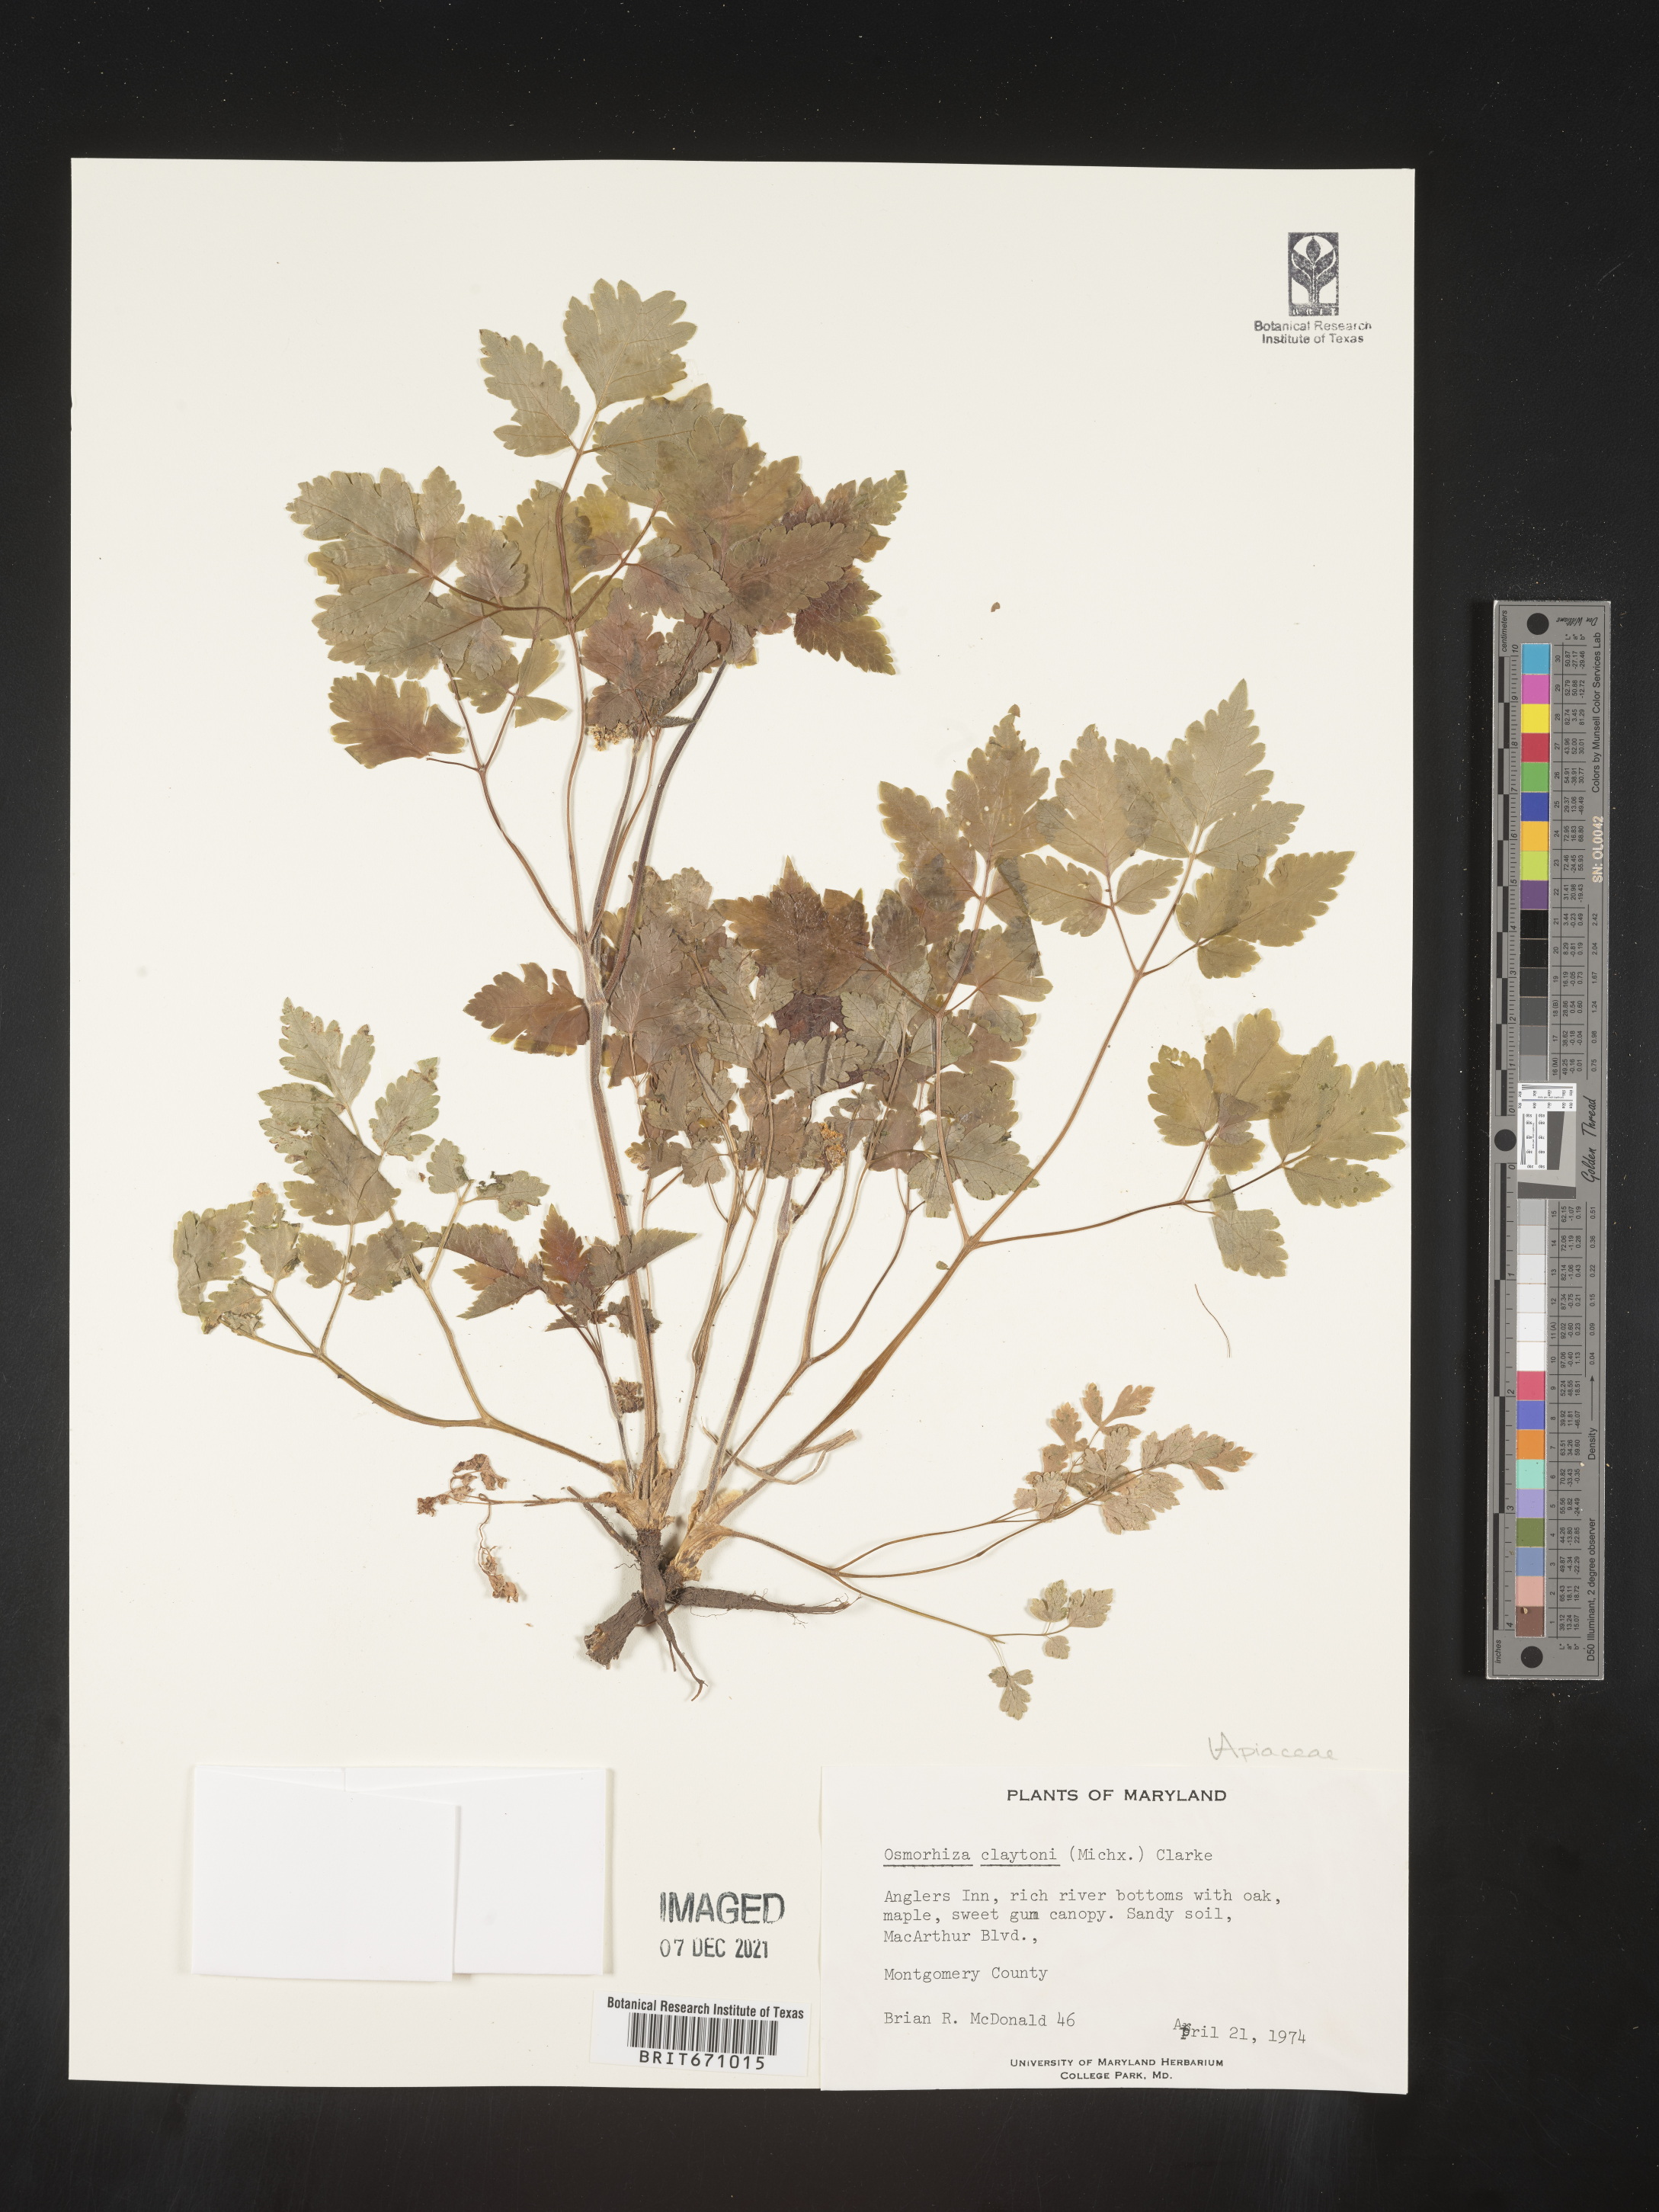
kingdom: Plantae
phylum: Tracheophyta
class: Magnoliopsida
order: Apiales
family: Apiaceae
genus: Osmorhiza
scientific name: Osmorhiza claytonii
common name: Hairy sweet cicely
